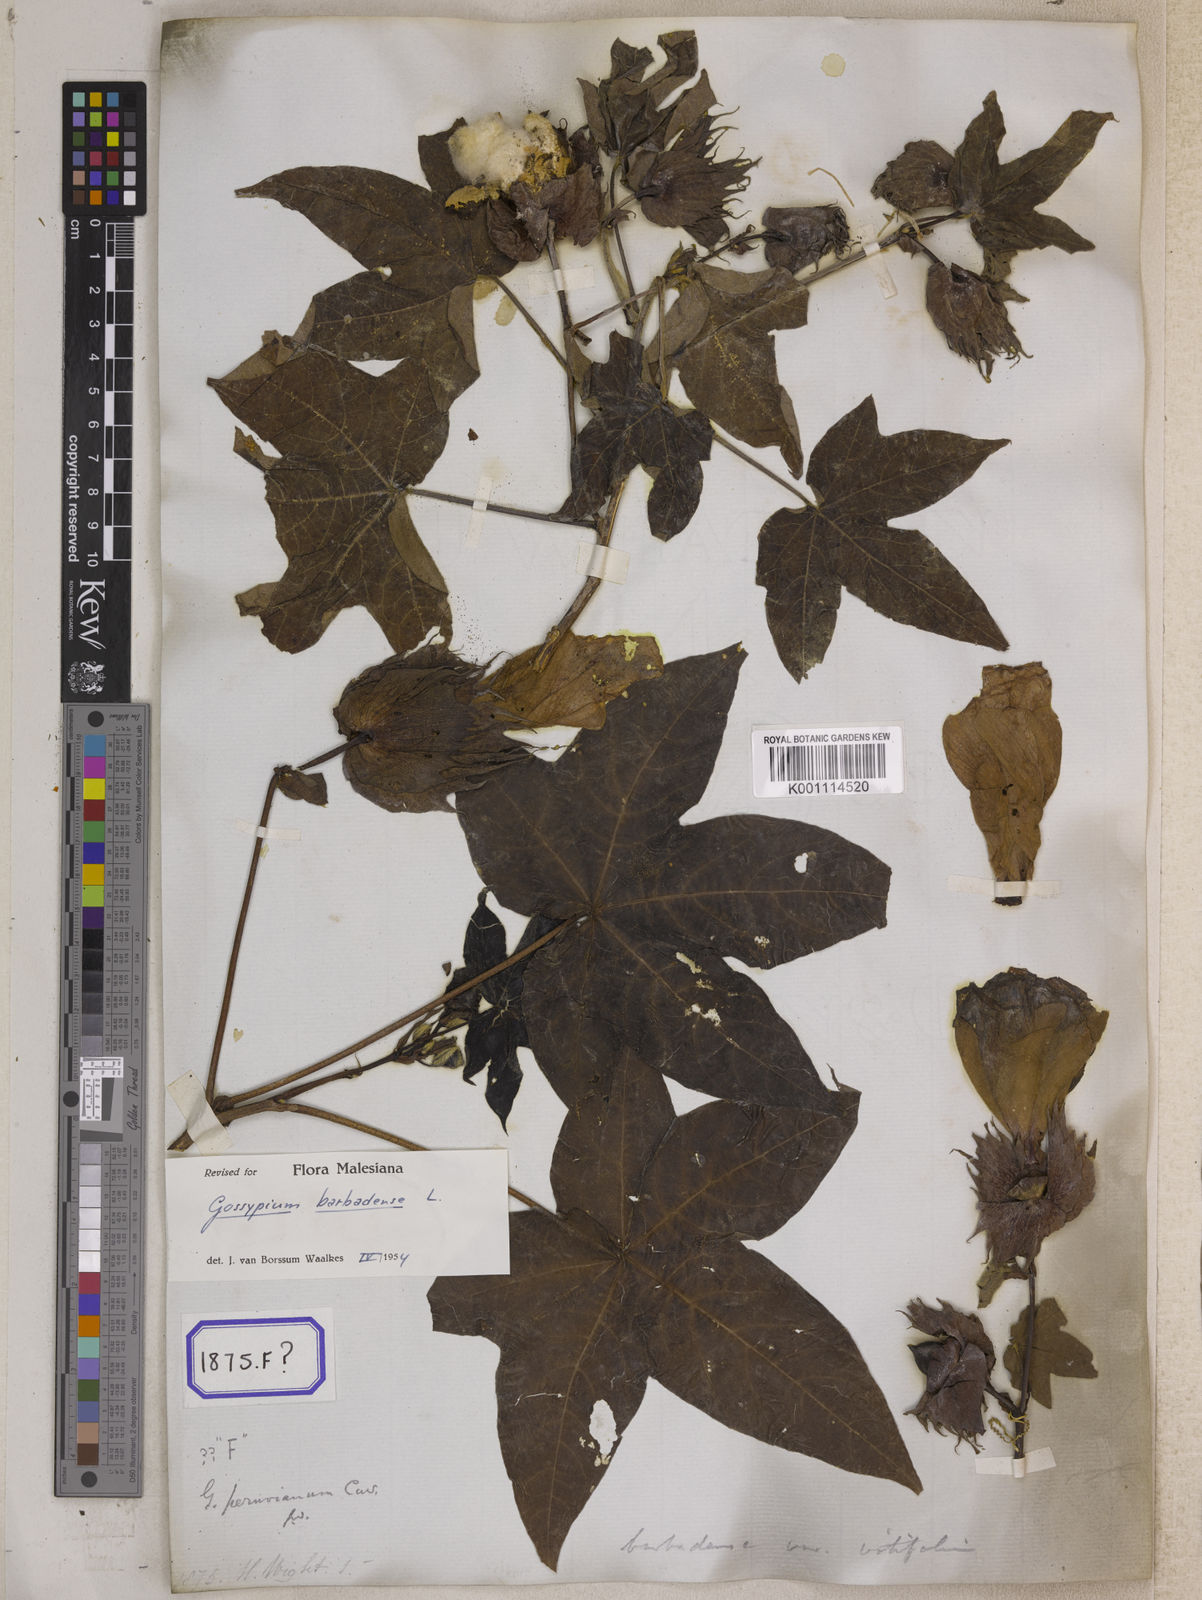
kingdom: Plantae
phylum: Tracheophyta
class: Magnoliopsida
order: Malvales
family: Malvaceae
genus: Gossypium
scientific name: Gossypium barbadense
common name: Creole cotton
